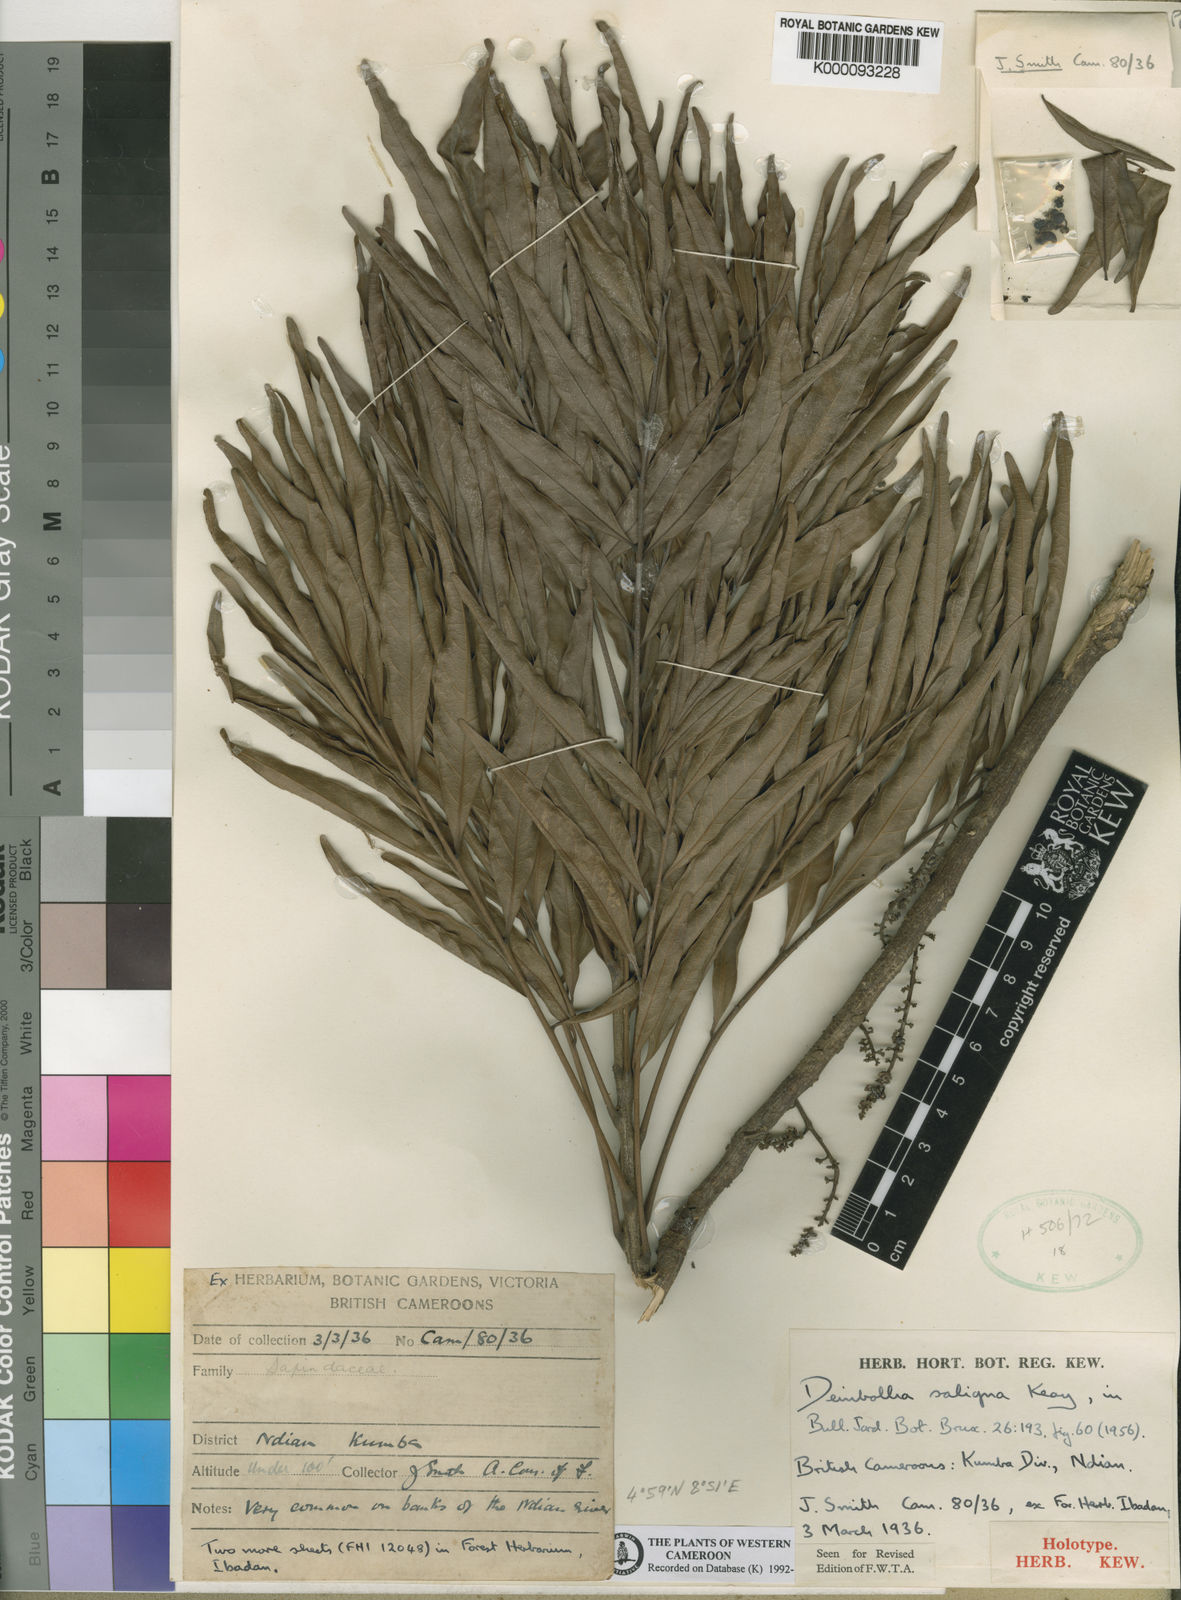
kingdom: Plantae
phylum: Tracheophyta
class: Magnoliopsida
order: Sapindales
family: Sapindaceae
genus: Deinbollia
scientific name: Deinbollia saligna
